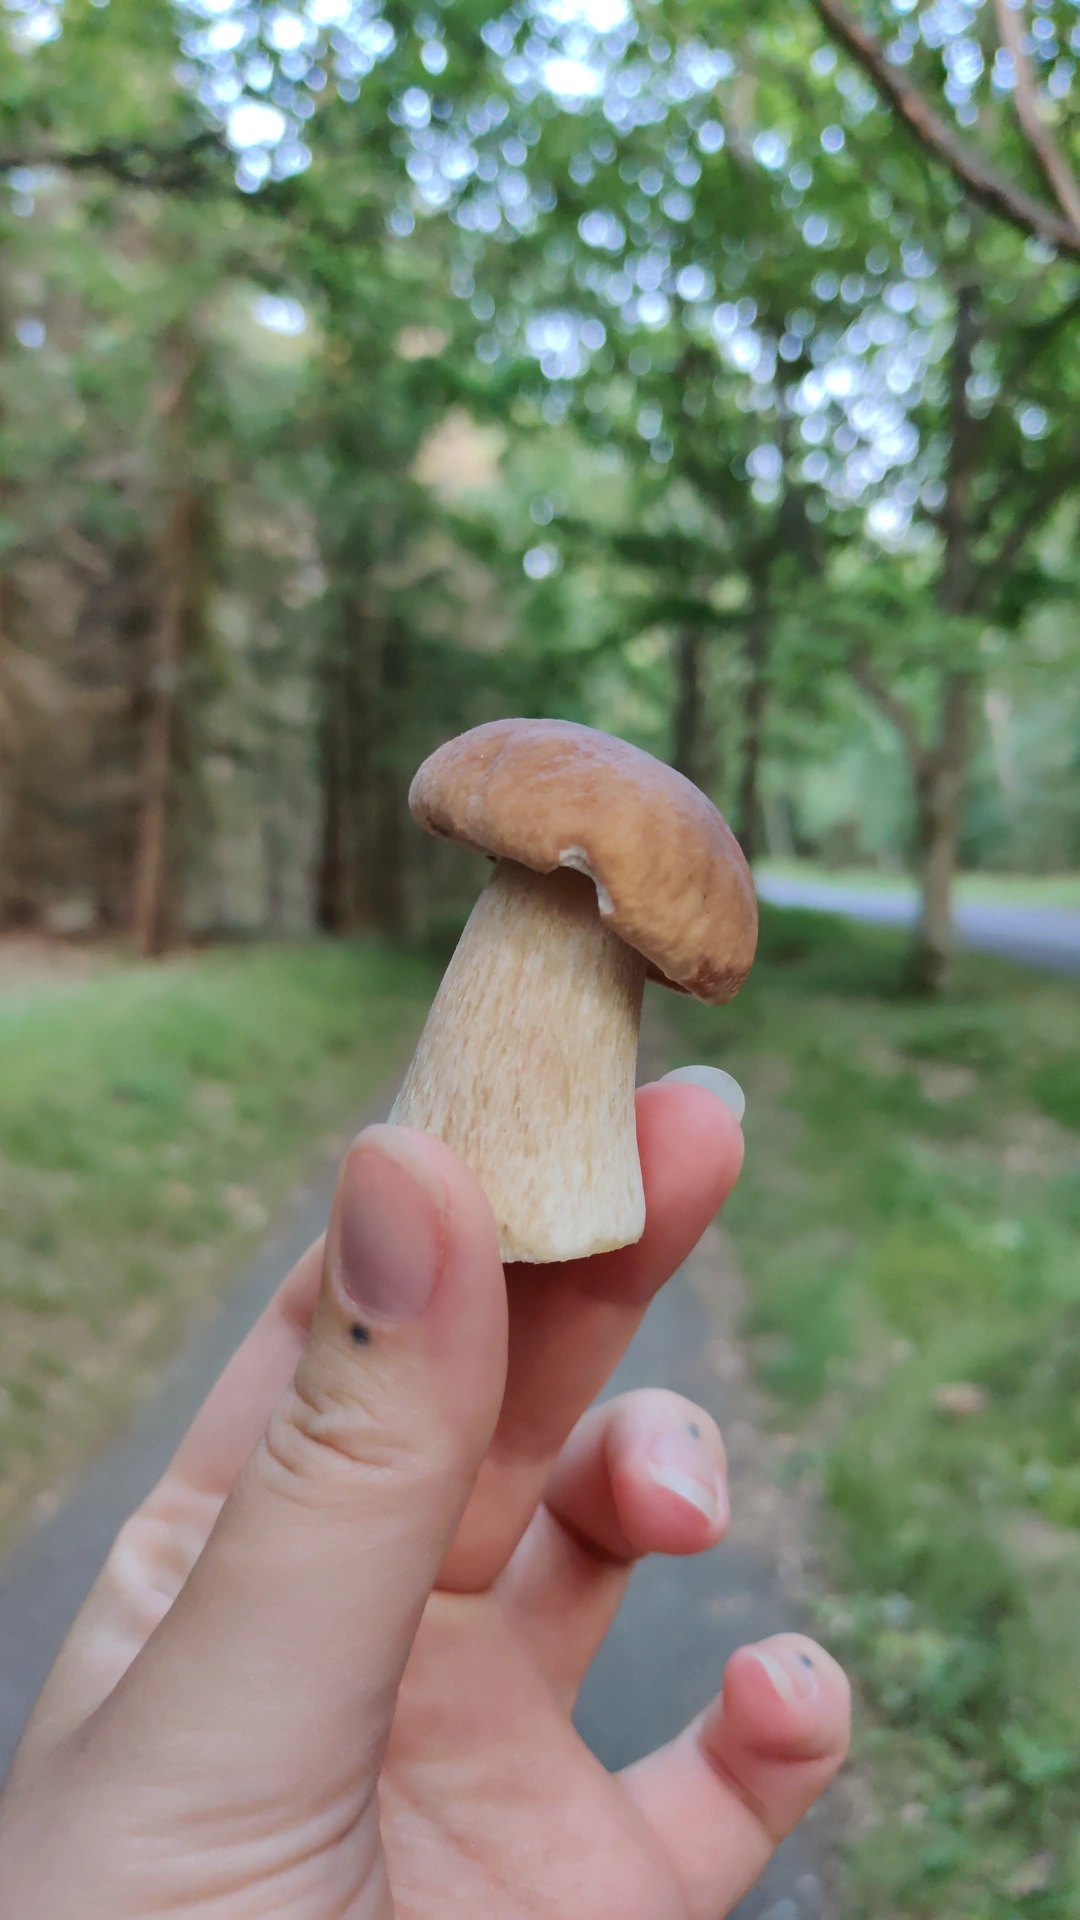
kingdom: Fungi
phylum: Basidiomycota
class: Agaricomycetes
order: Boletales
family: Boletaceae
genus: Boletus
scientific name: Boletus edulis
